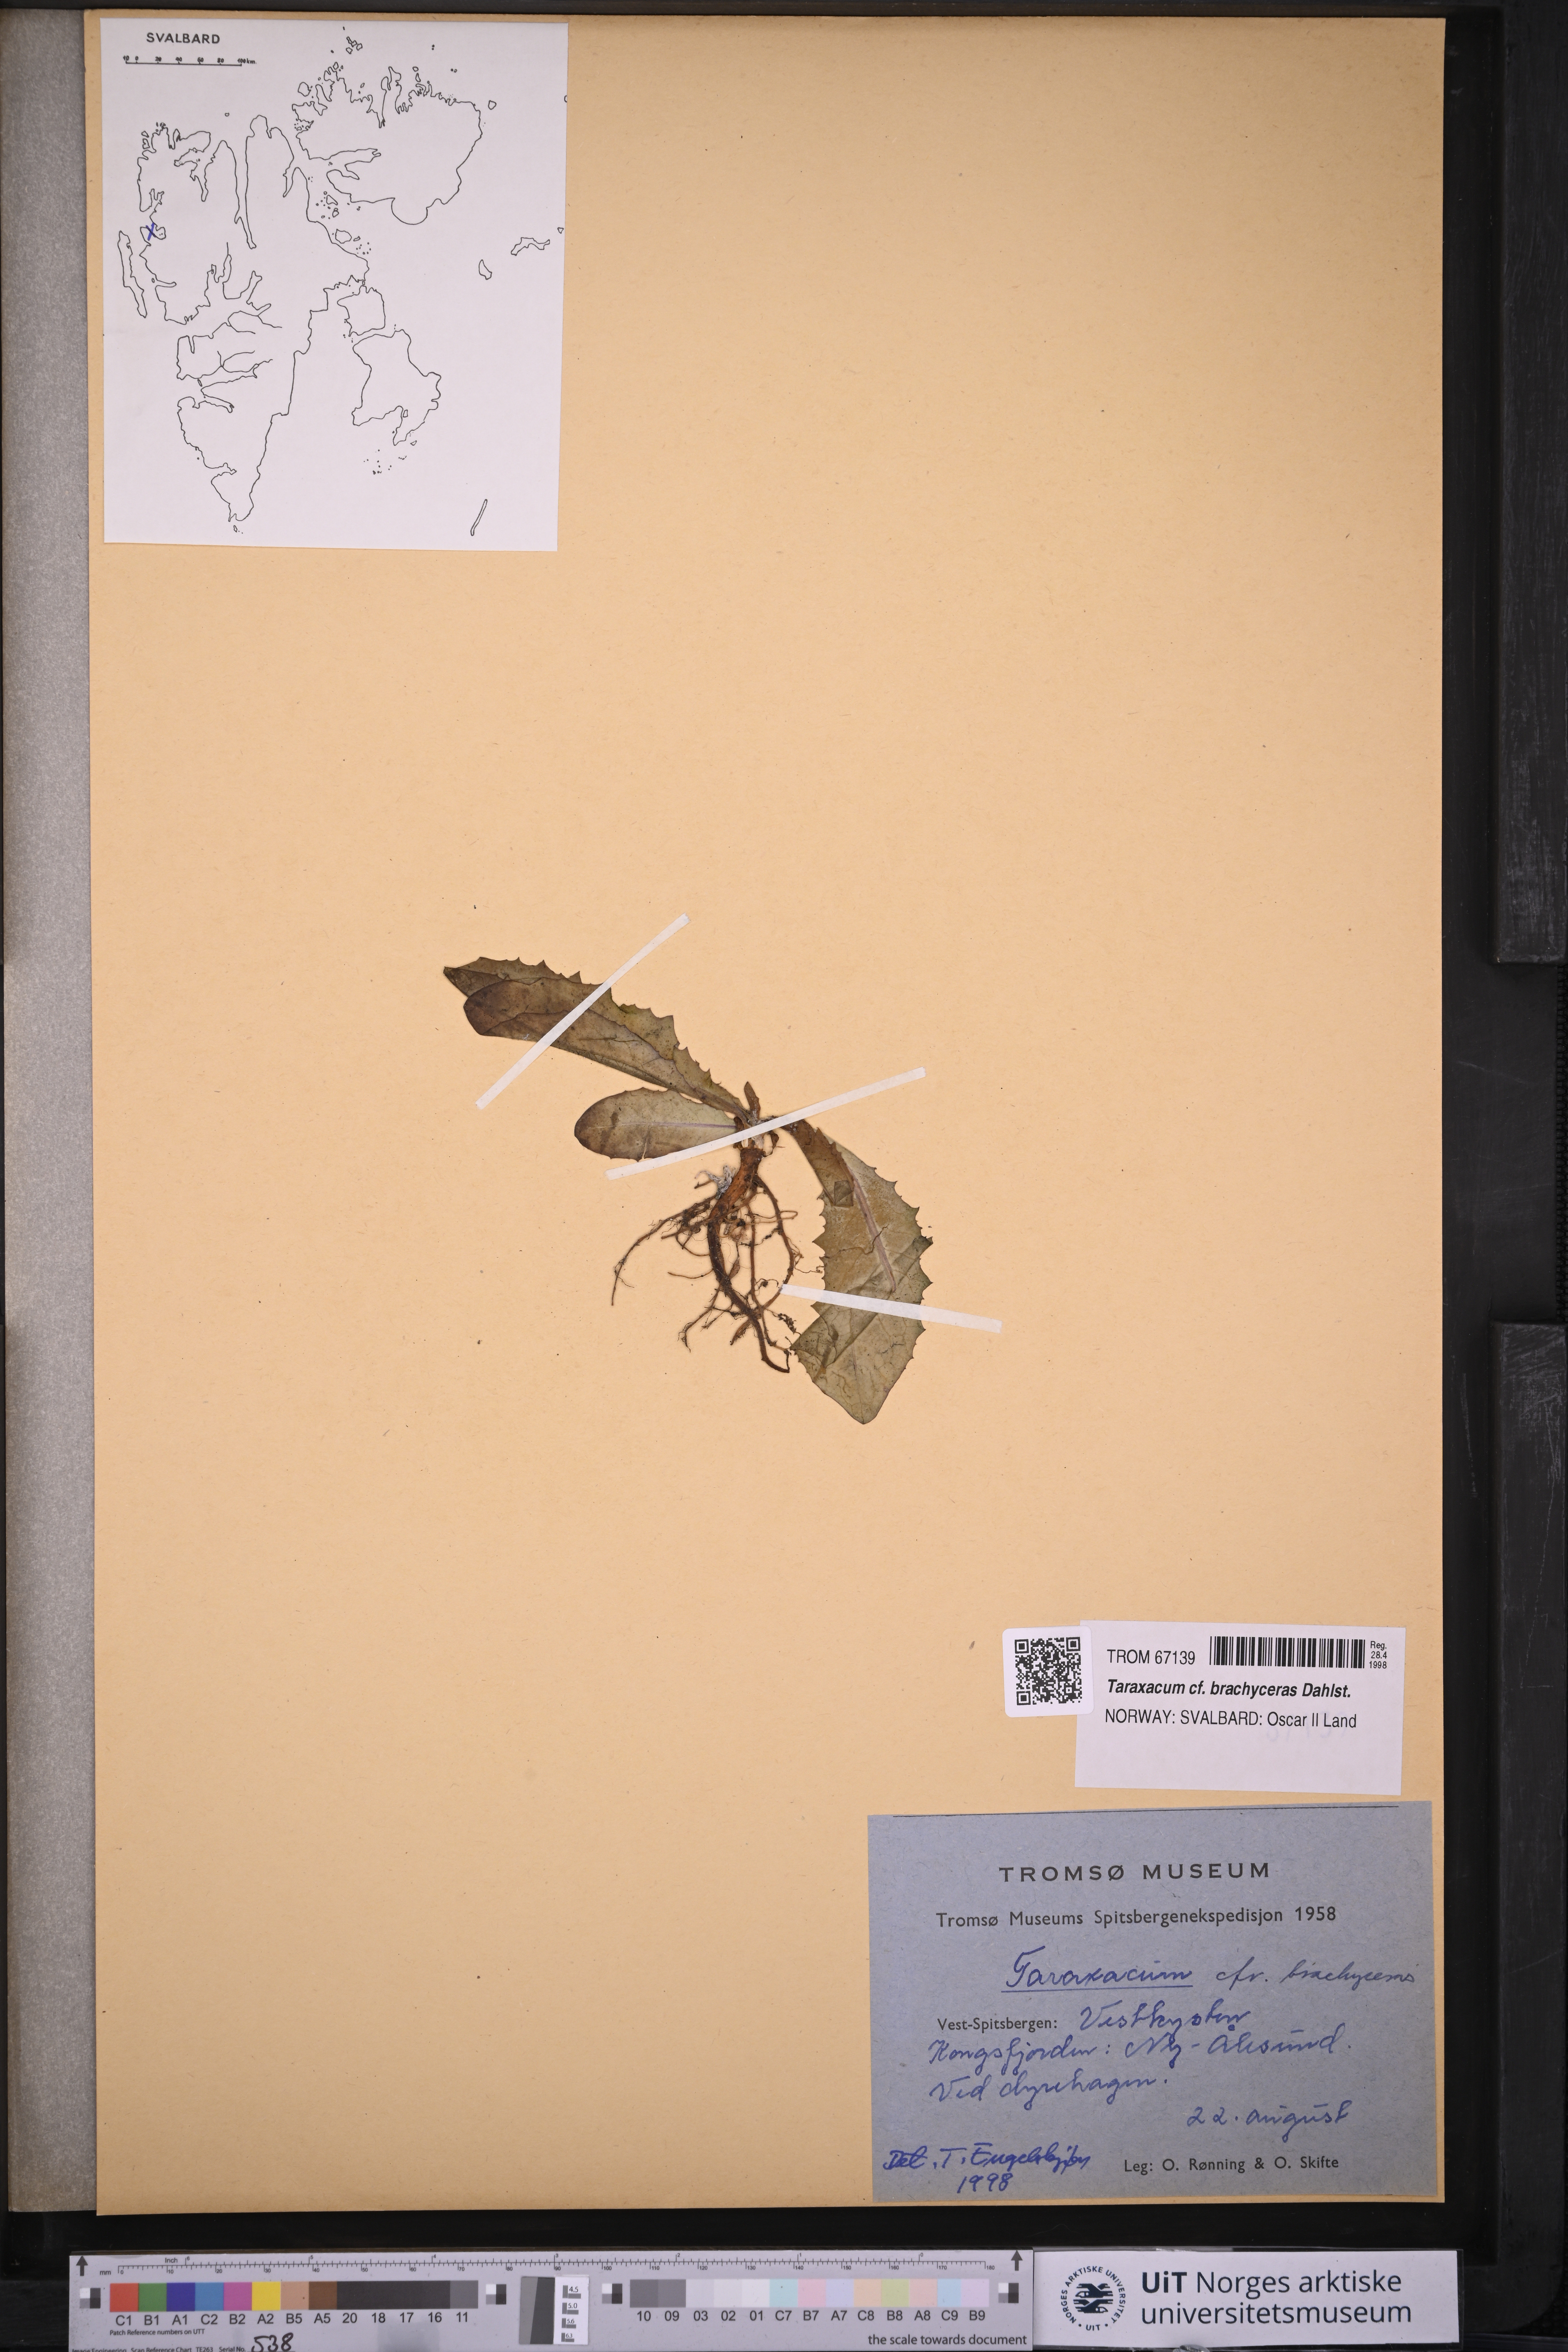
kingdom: Plantae
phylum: Tracheophyta
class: Magnoliopsida
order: Asterales
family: Asteraceae
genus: Taraxacum
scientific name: Taraxacum brachyceras
